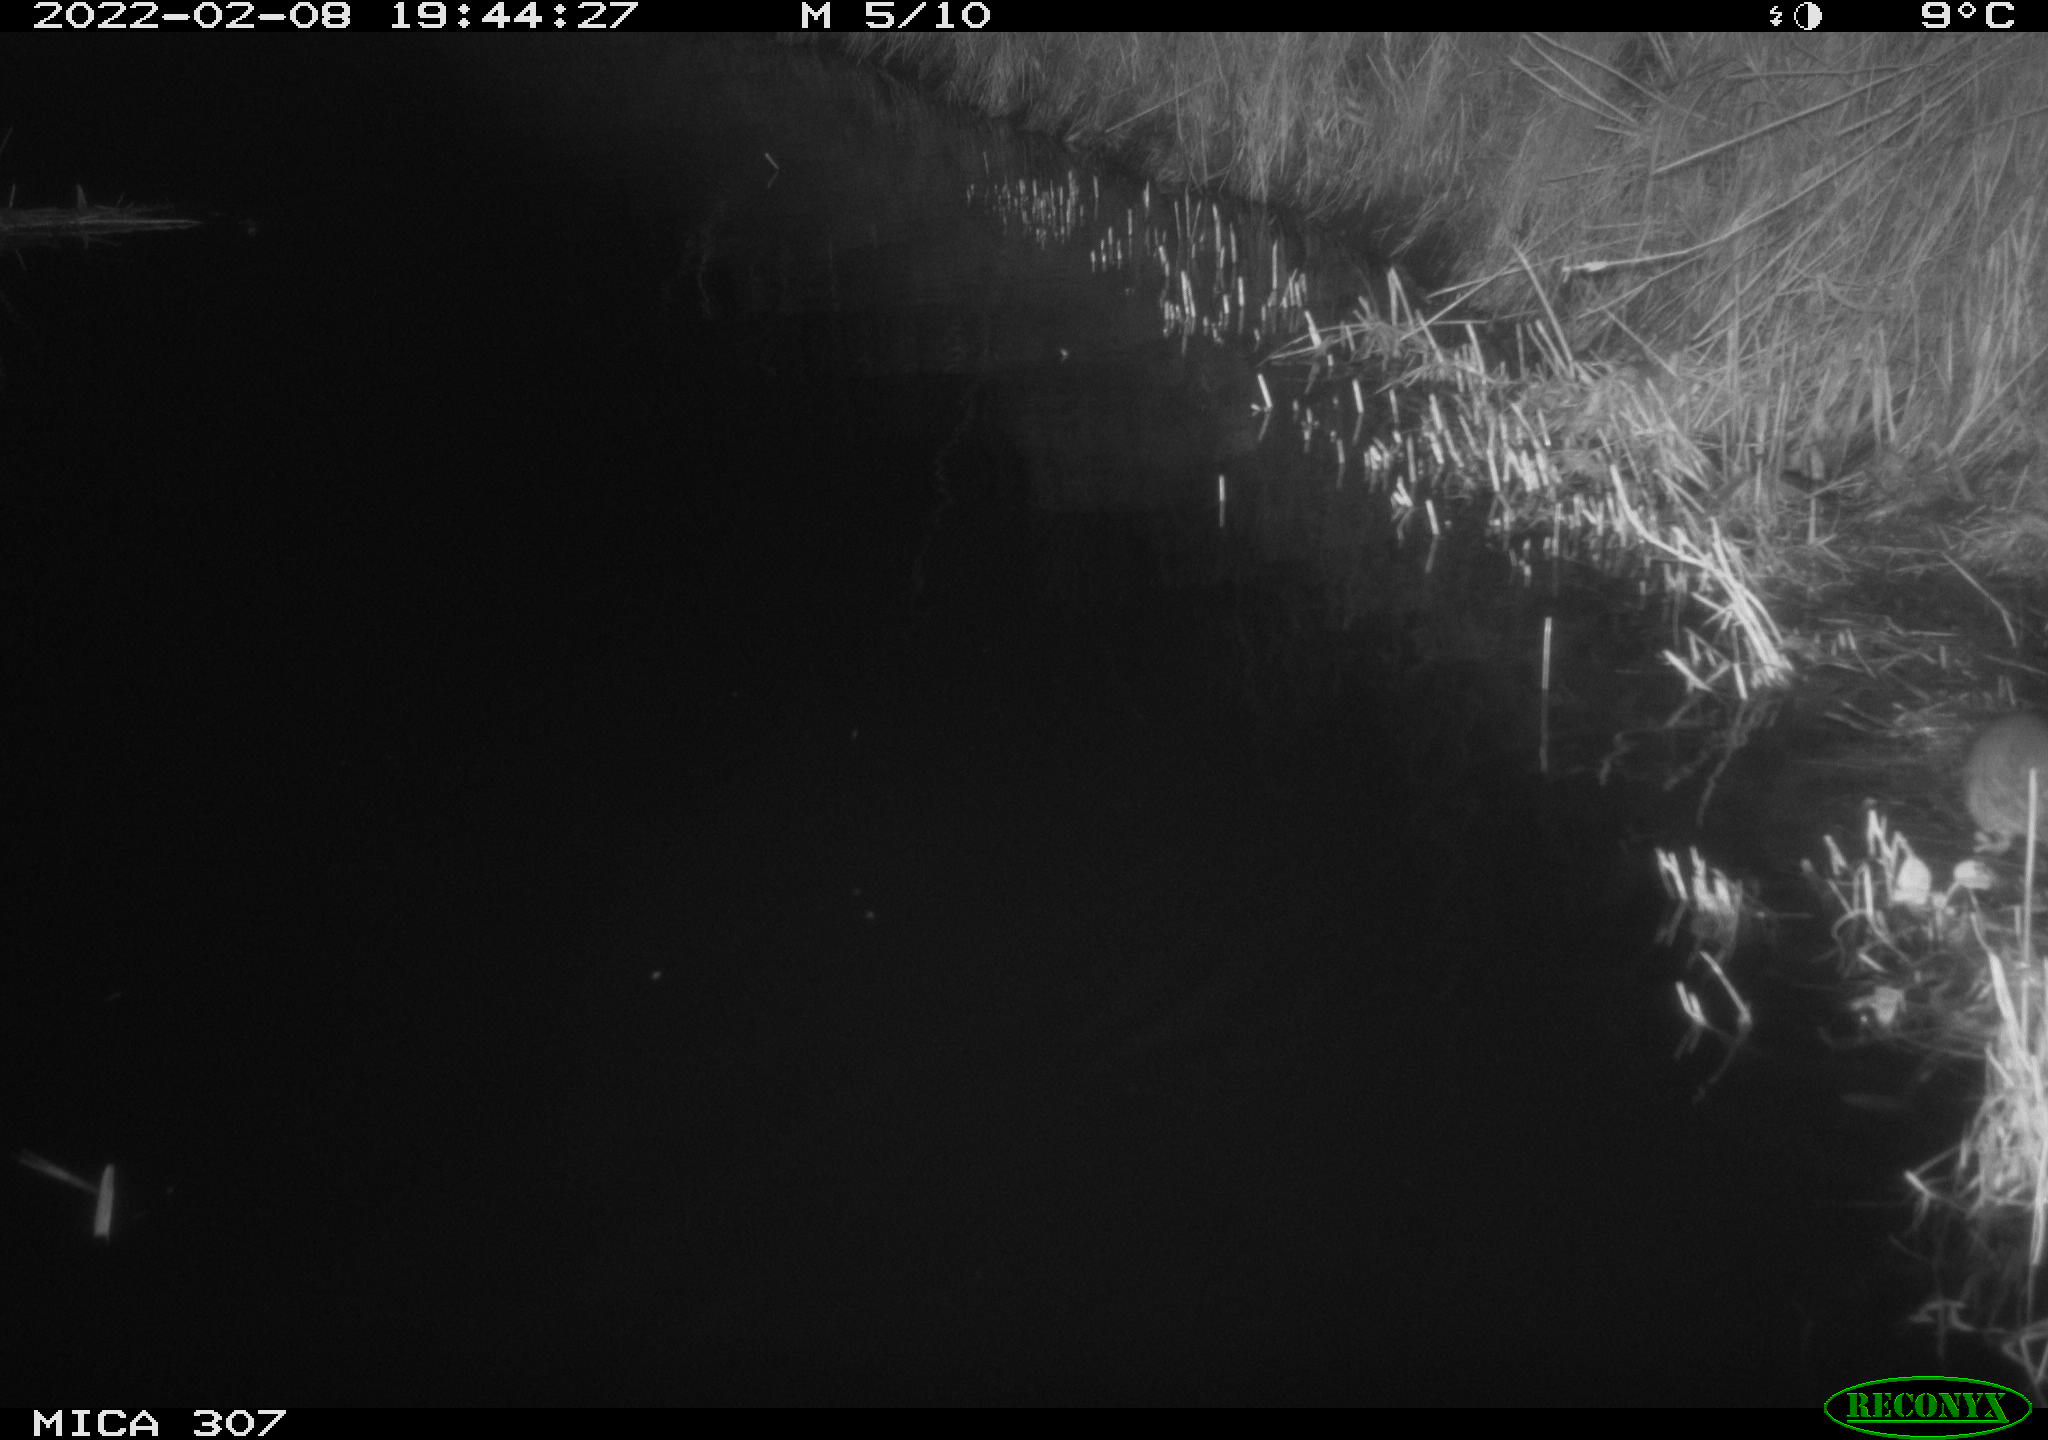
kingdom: Animalia
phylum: Chordata
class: Mammalia
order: Rodentia
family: Muridae
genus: Rattus
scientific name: Rattus norvegicus
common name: Brown rat
